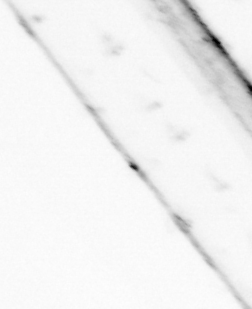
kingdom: Animalia
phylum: Chaetognatha
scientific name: Chaetognatha
